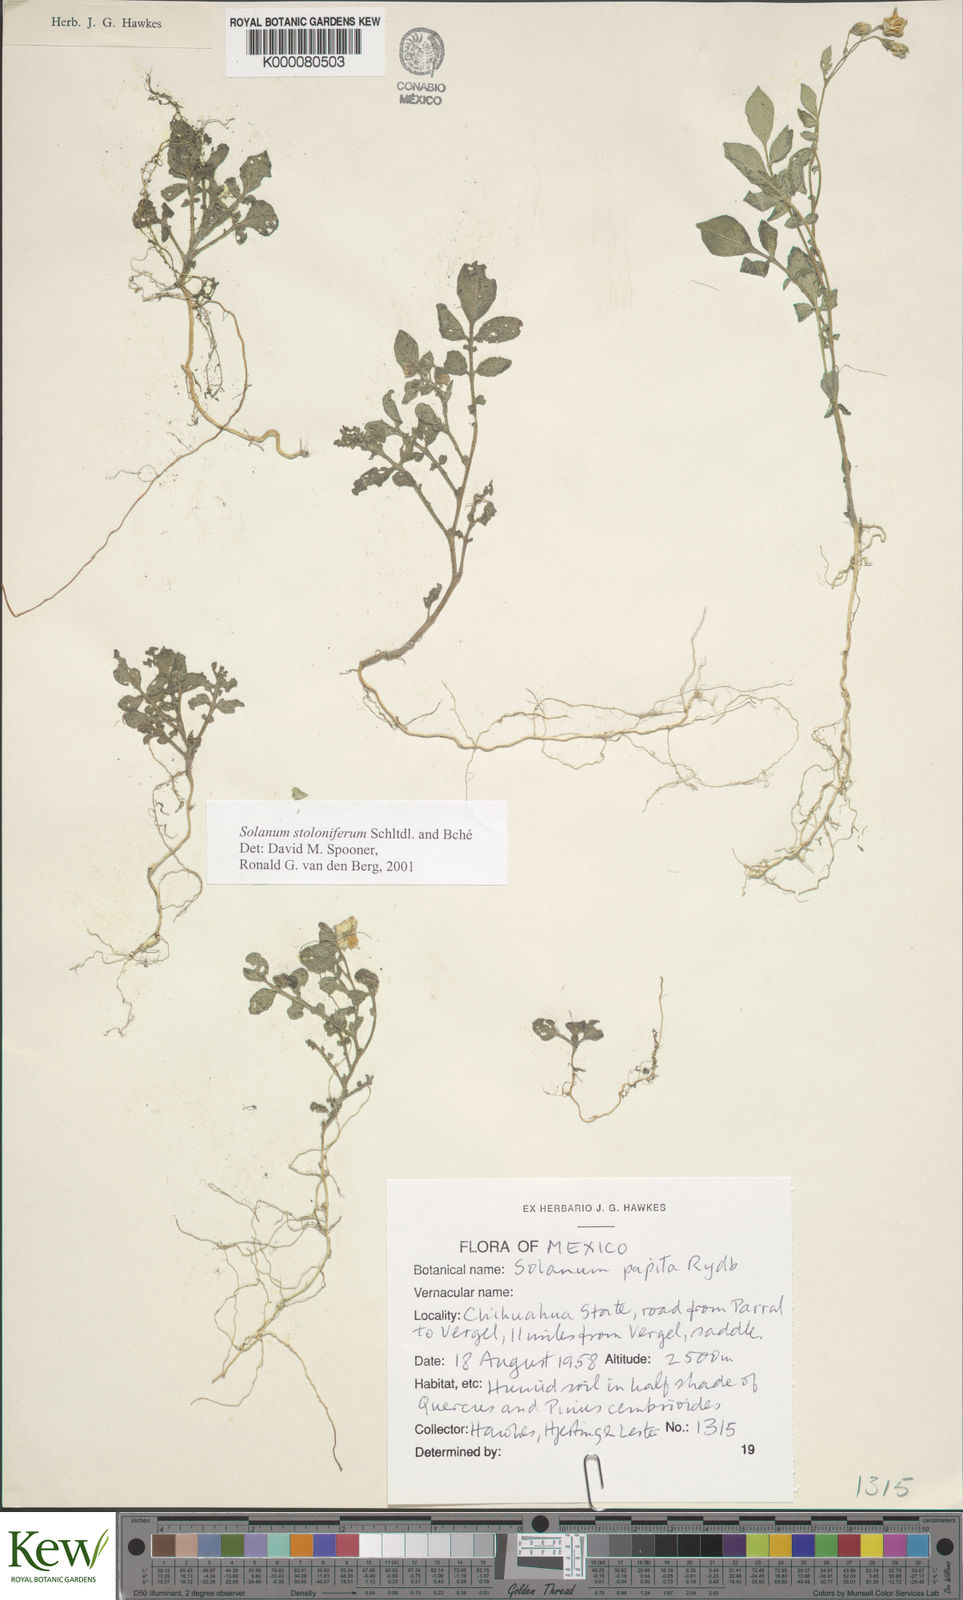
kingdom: Plantae
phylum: Tracheophyta
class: Magnoliopsida
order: Solanales
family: Solanaceae
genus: Solanum
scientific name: Solanum stoloniferum
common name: Fendler's nighshade
